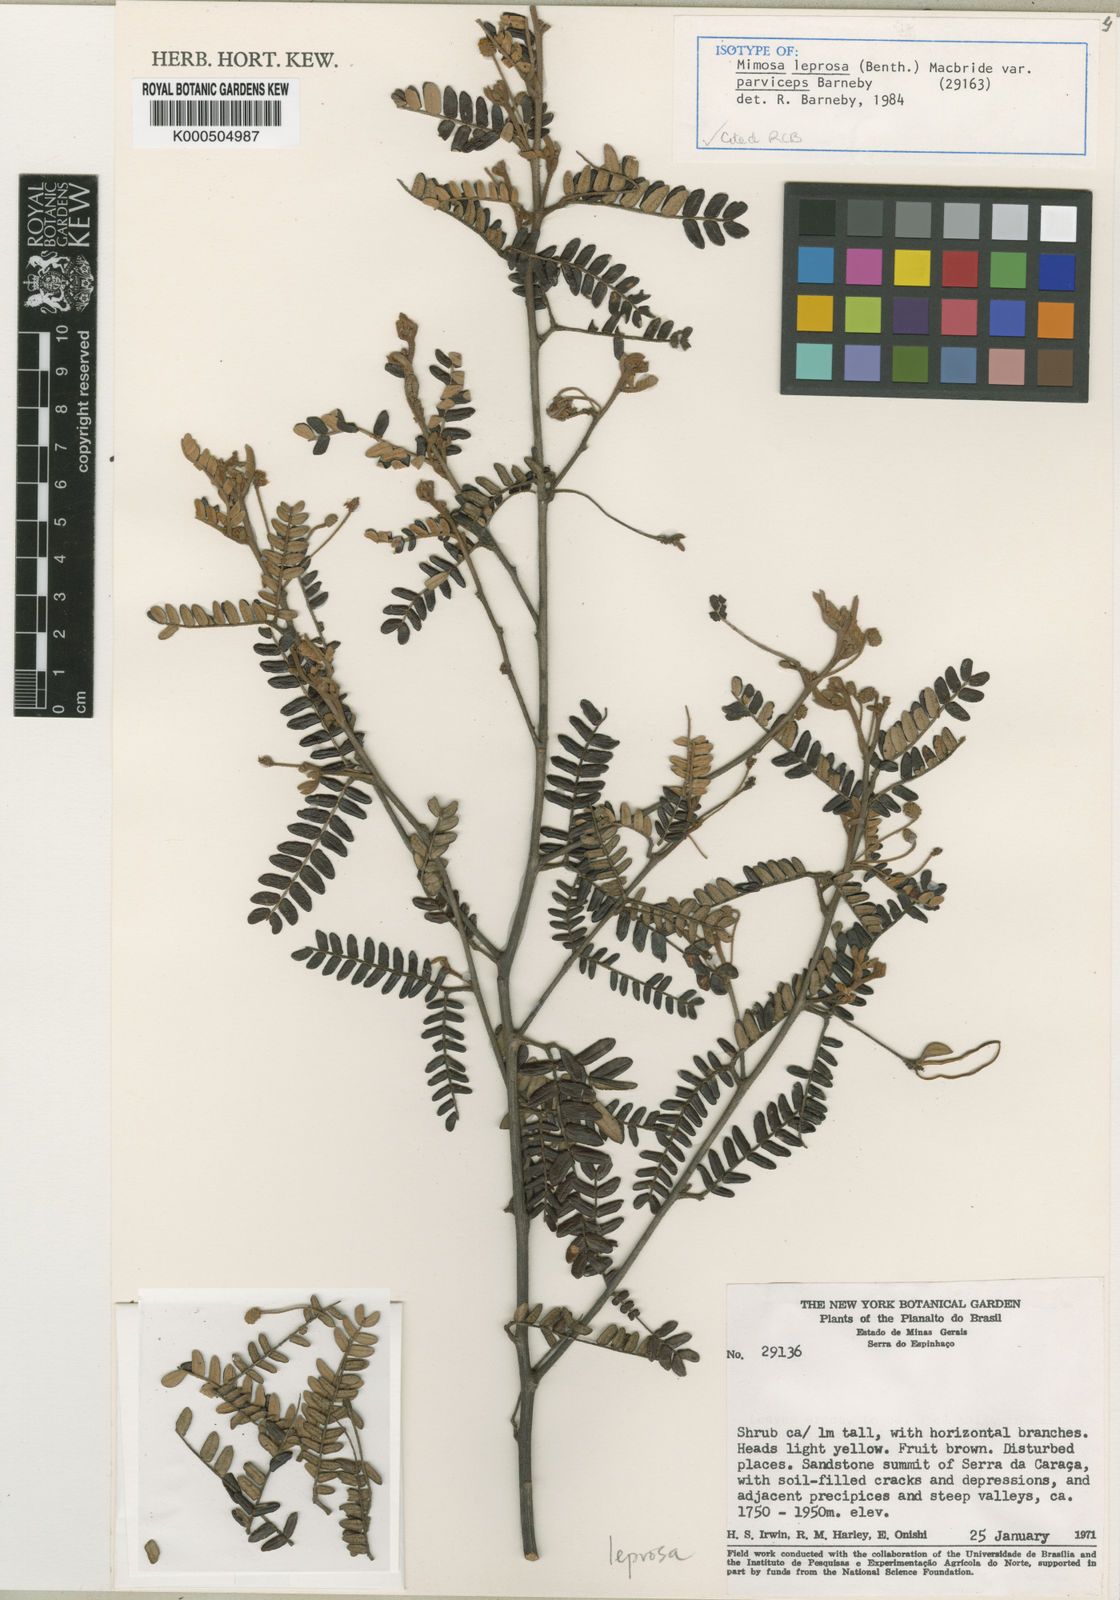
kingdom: Plantae
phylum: Tracheophyta
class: Magnoliopsida
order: Fabales
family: Fabaceae
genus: Mimosa
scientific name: Mimosa leprosa
